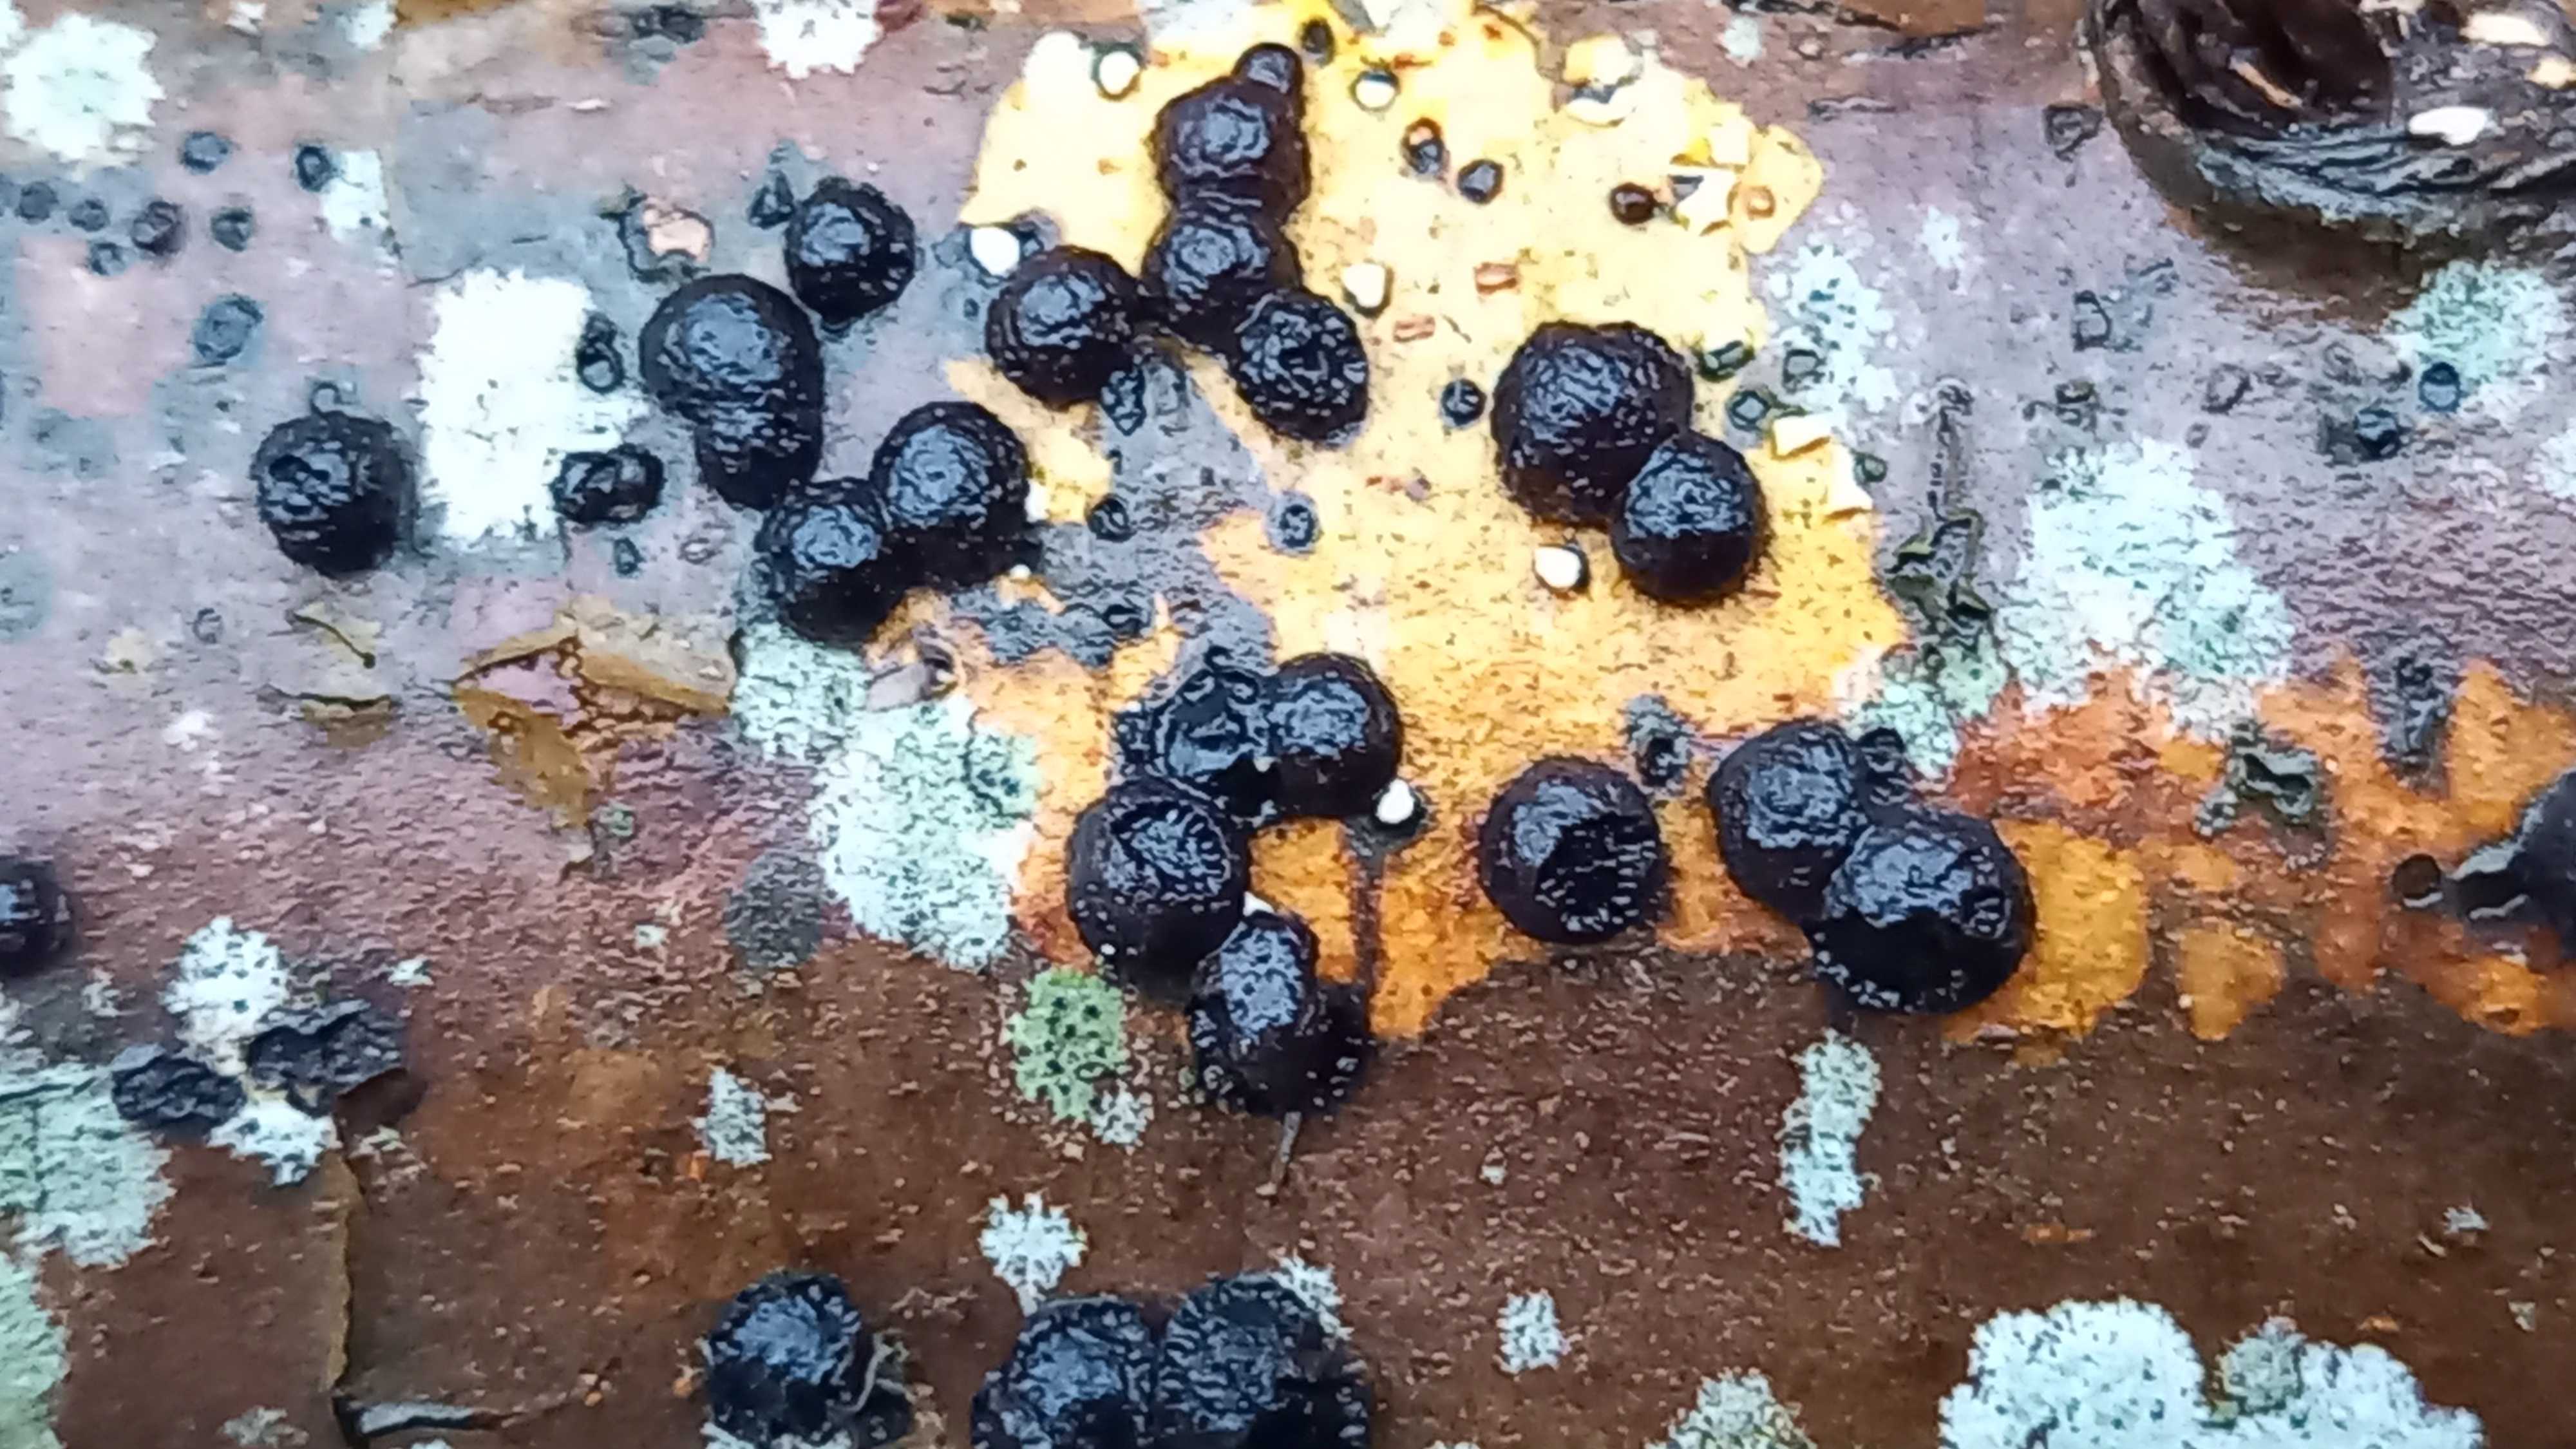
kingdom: Fungi
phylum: Ascomycota
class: Sordariomycetes
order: Xylariales
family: Hypoxylaceae
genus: Hypoxylon
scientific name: Hypoxylon fragiforme
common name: kuljordbær
